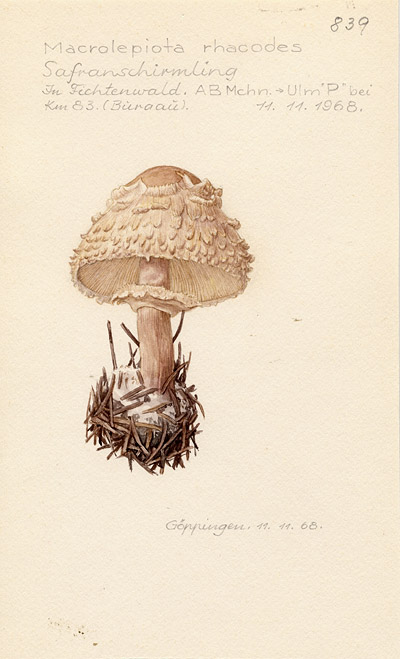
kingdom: Fungi
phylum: Basidiomycota
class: Agaricomycetes
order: Agaricales
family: Agaricaceae
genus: Chlorophyllum
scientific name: Chlorophyllum rhacodes
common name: Shaggy parasol
